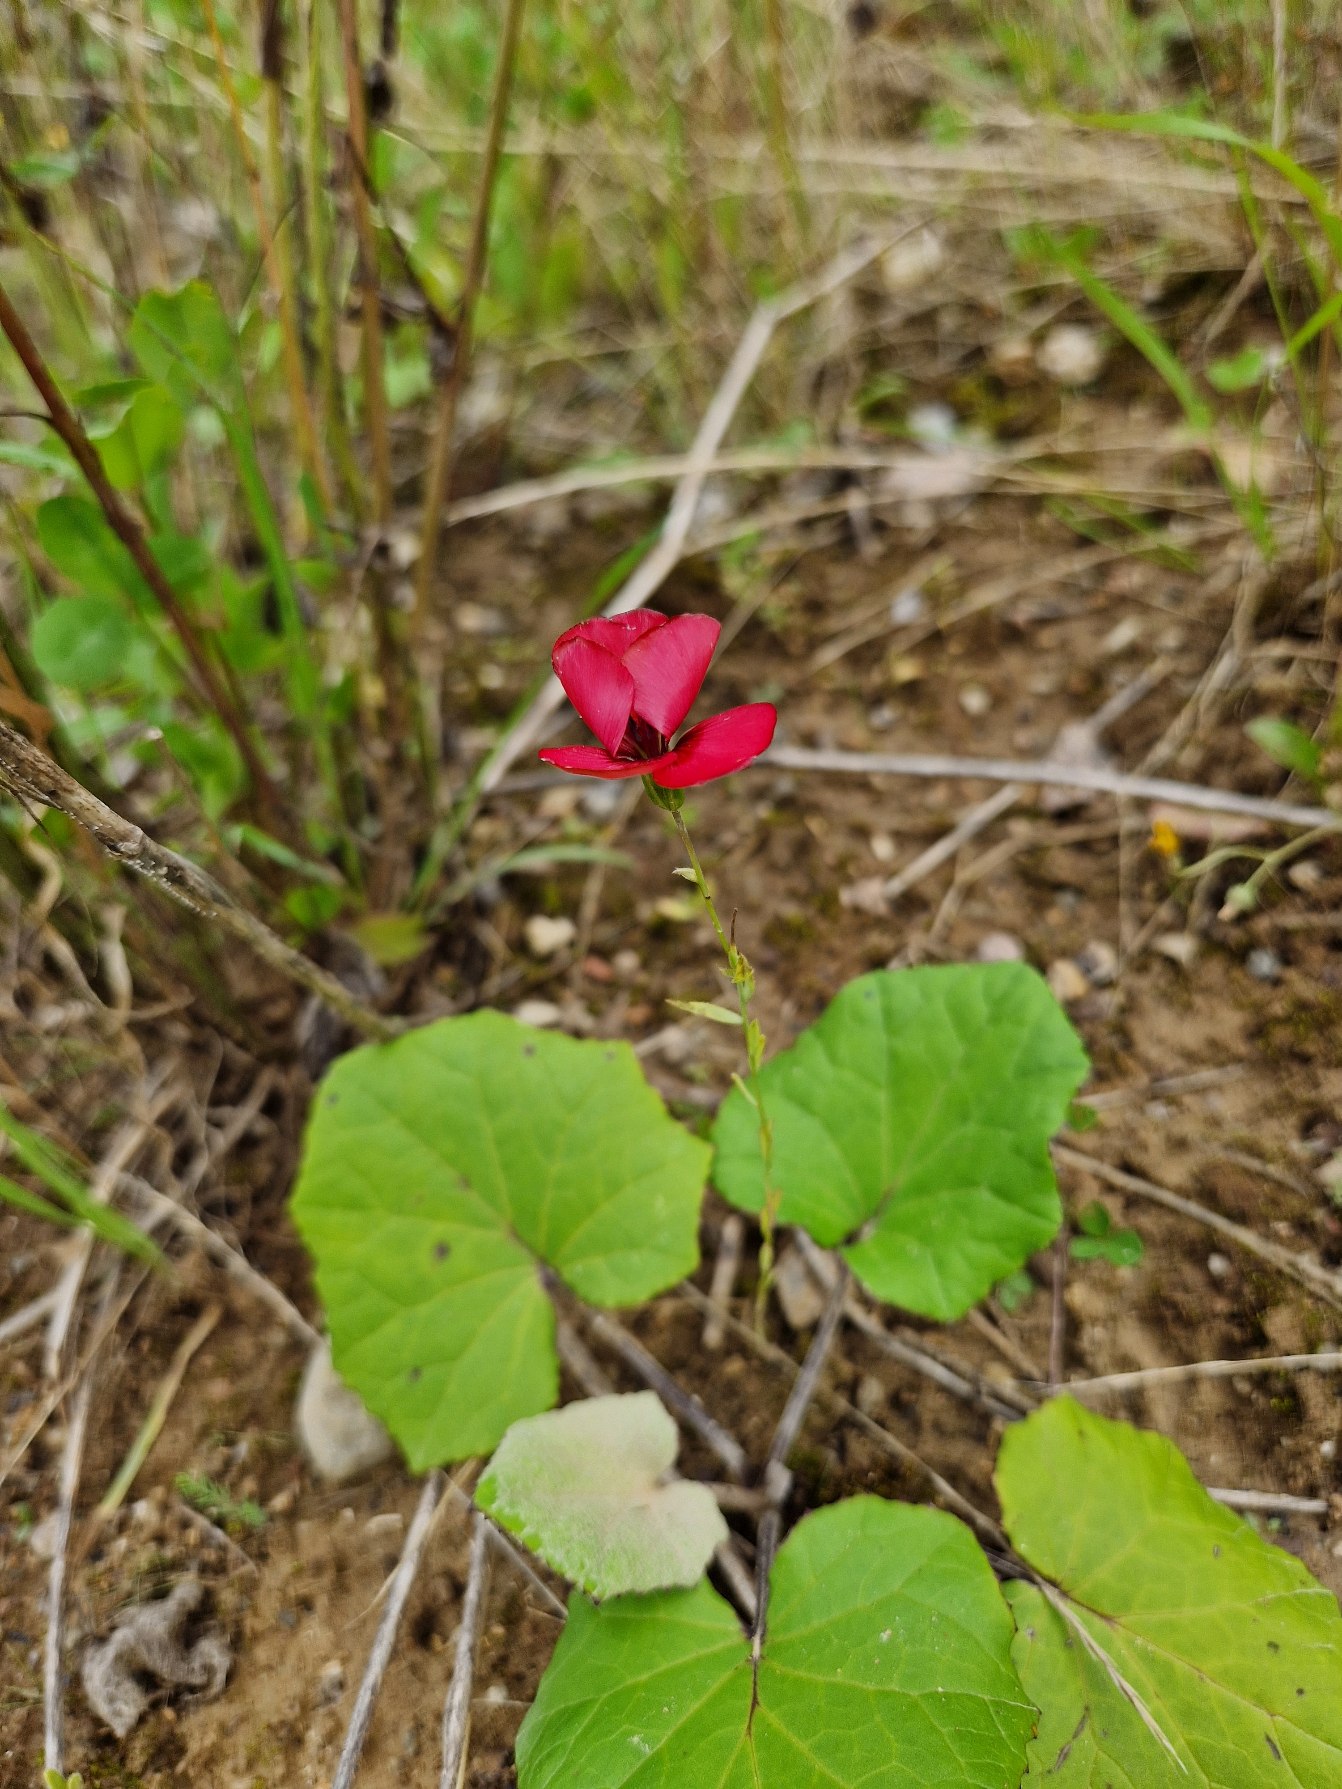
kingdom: Plantae
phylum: Tracheophyta
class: Magnoliopsida
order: Malpighiales
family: Linaceae
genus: Linum
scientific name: Linum grandiflorum
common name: Rød hør
